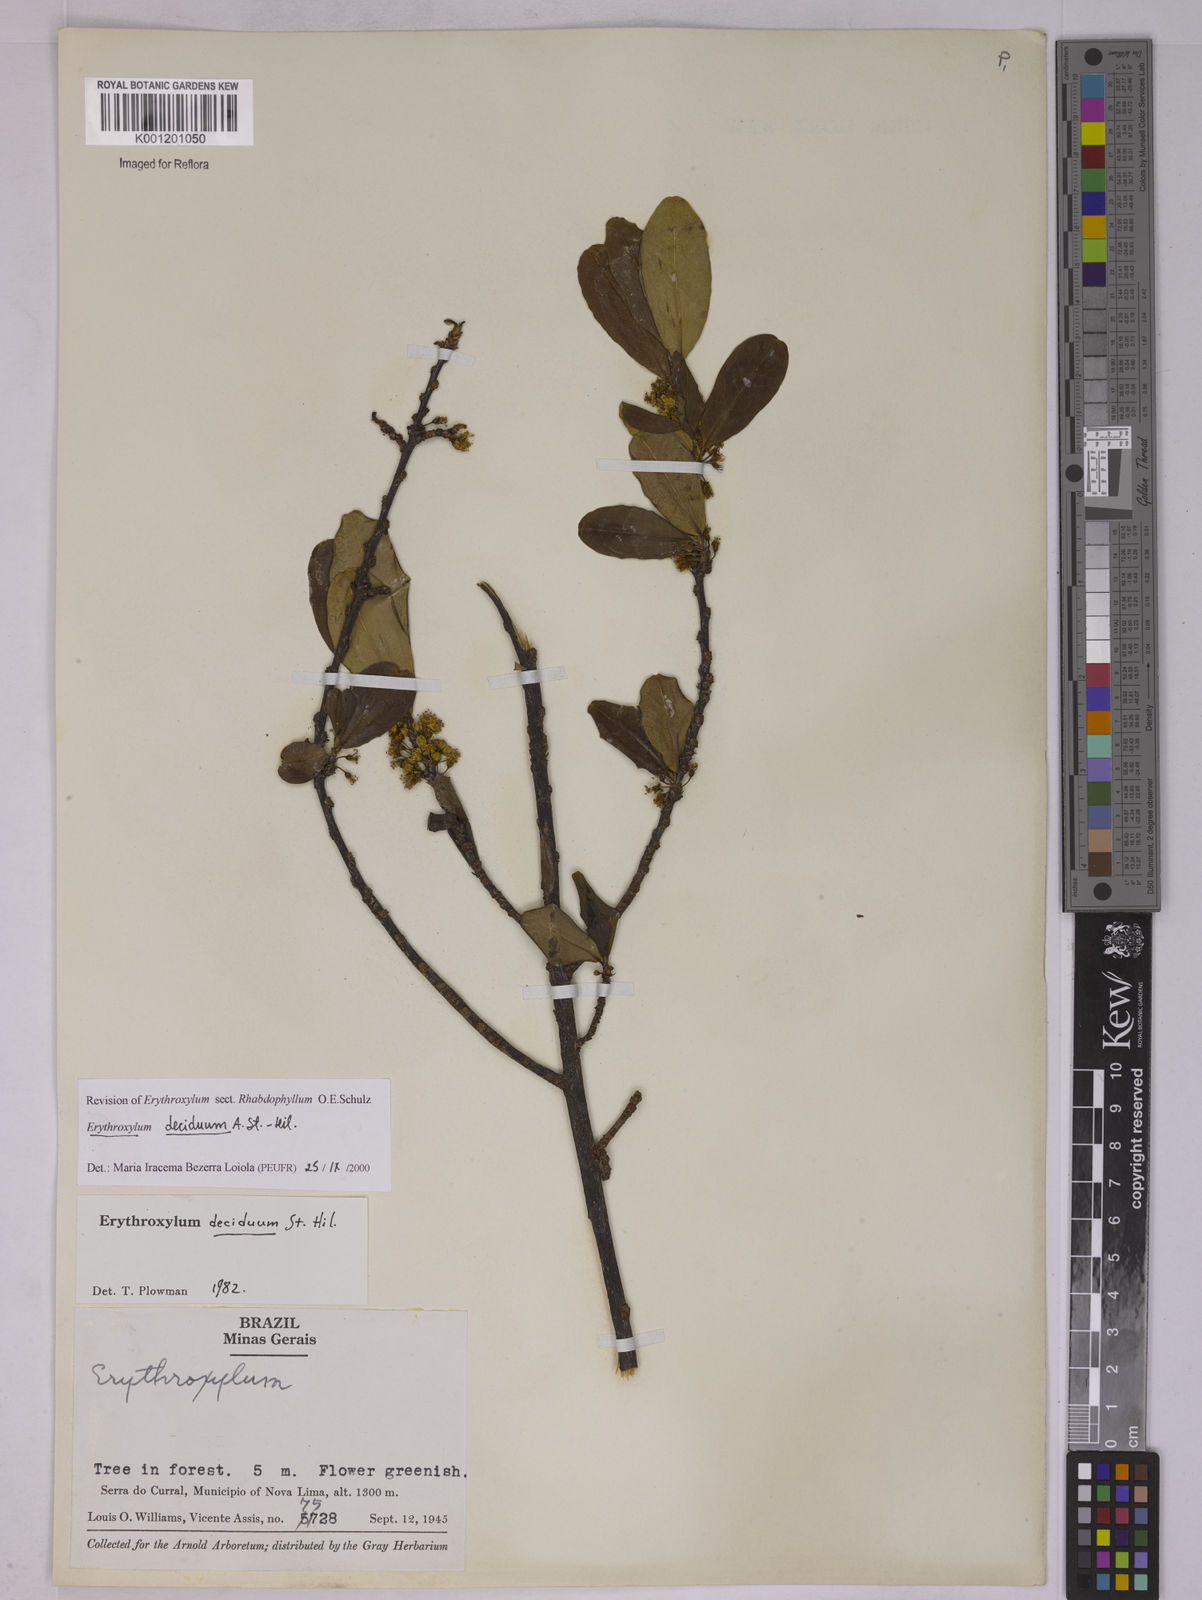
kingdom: Plantae
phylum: Tracheophyta
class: Magnoliopsida
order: Malpighiales
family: Erythroxylaceae
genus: Erythroxylum
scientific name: Erythroxylum deciduum
